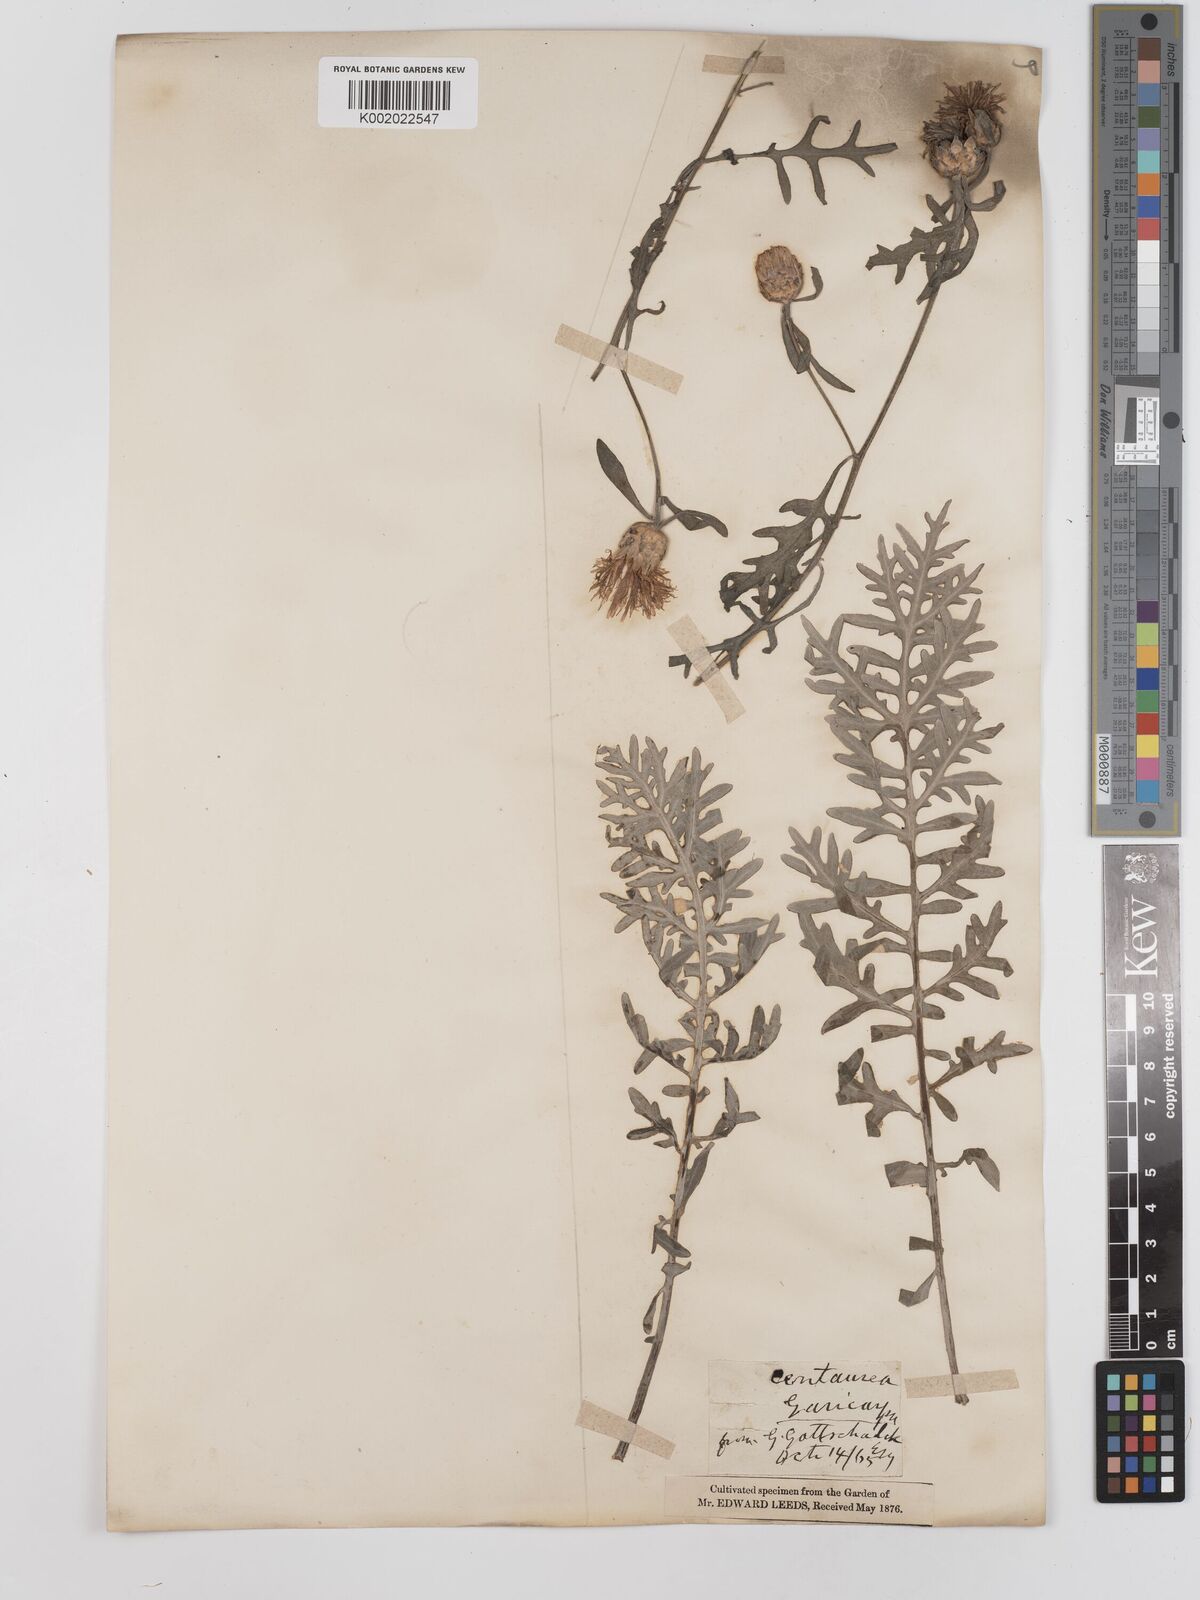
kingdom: Plantae
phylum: Tracheophyta
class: Magnoliopsida
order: Asterales
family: Asteraceae
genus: Centaurea
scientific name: Centaurea cineraria
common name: Dusty miller
